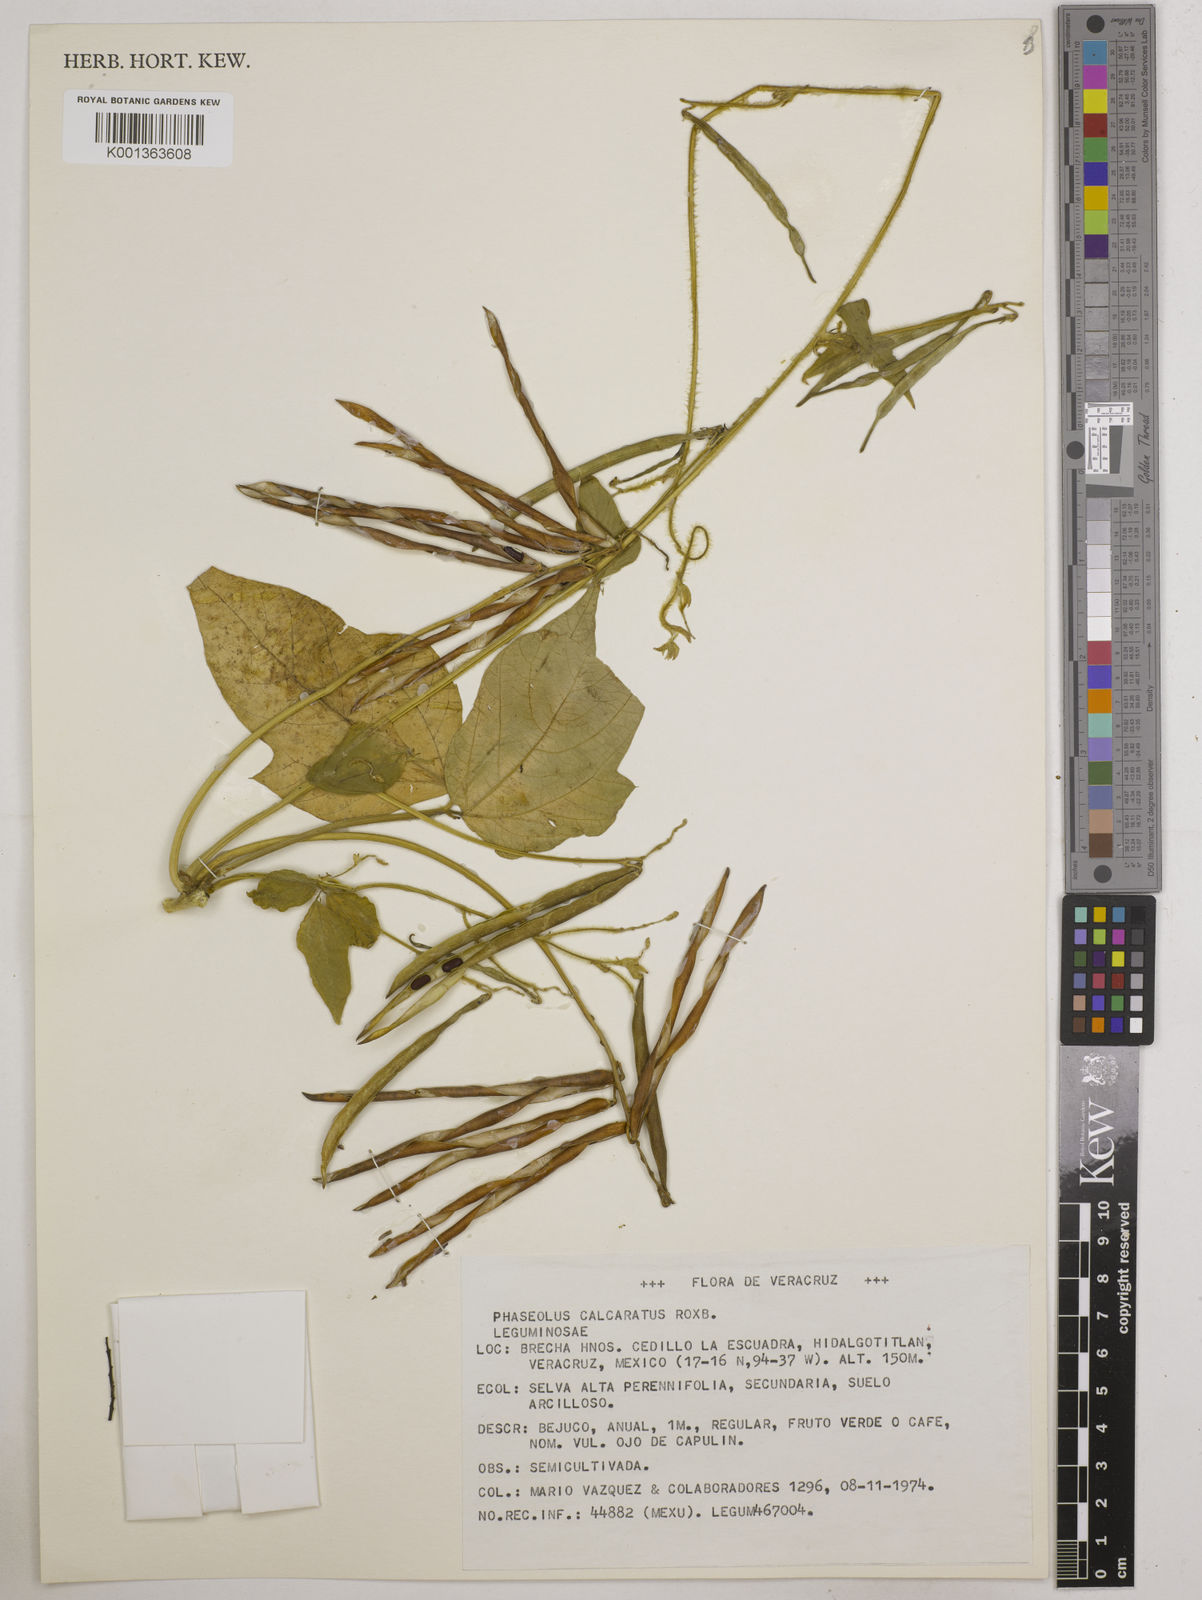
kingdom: Plantae
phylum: Tracheophyta
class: Magnoliopsida
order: Fabales
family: Fabaceae
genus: Vigna
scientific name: Vigna umbellata
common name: Oriental-bean
